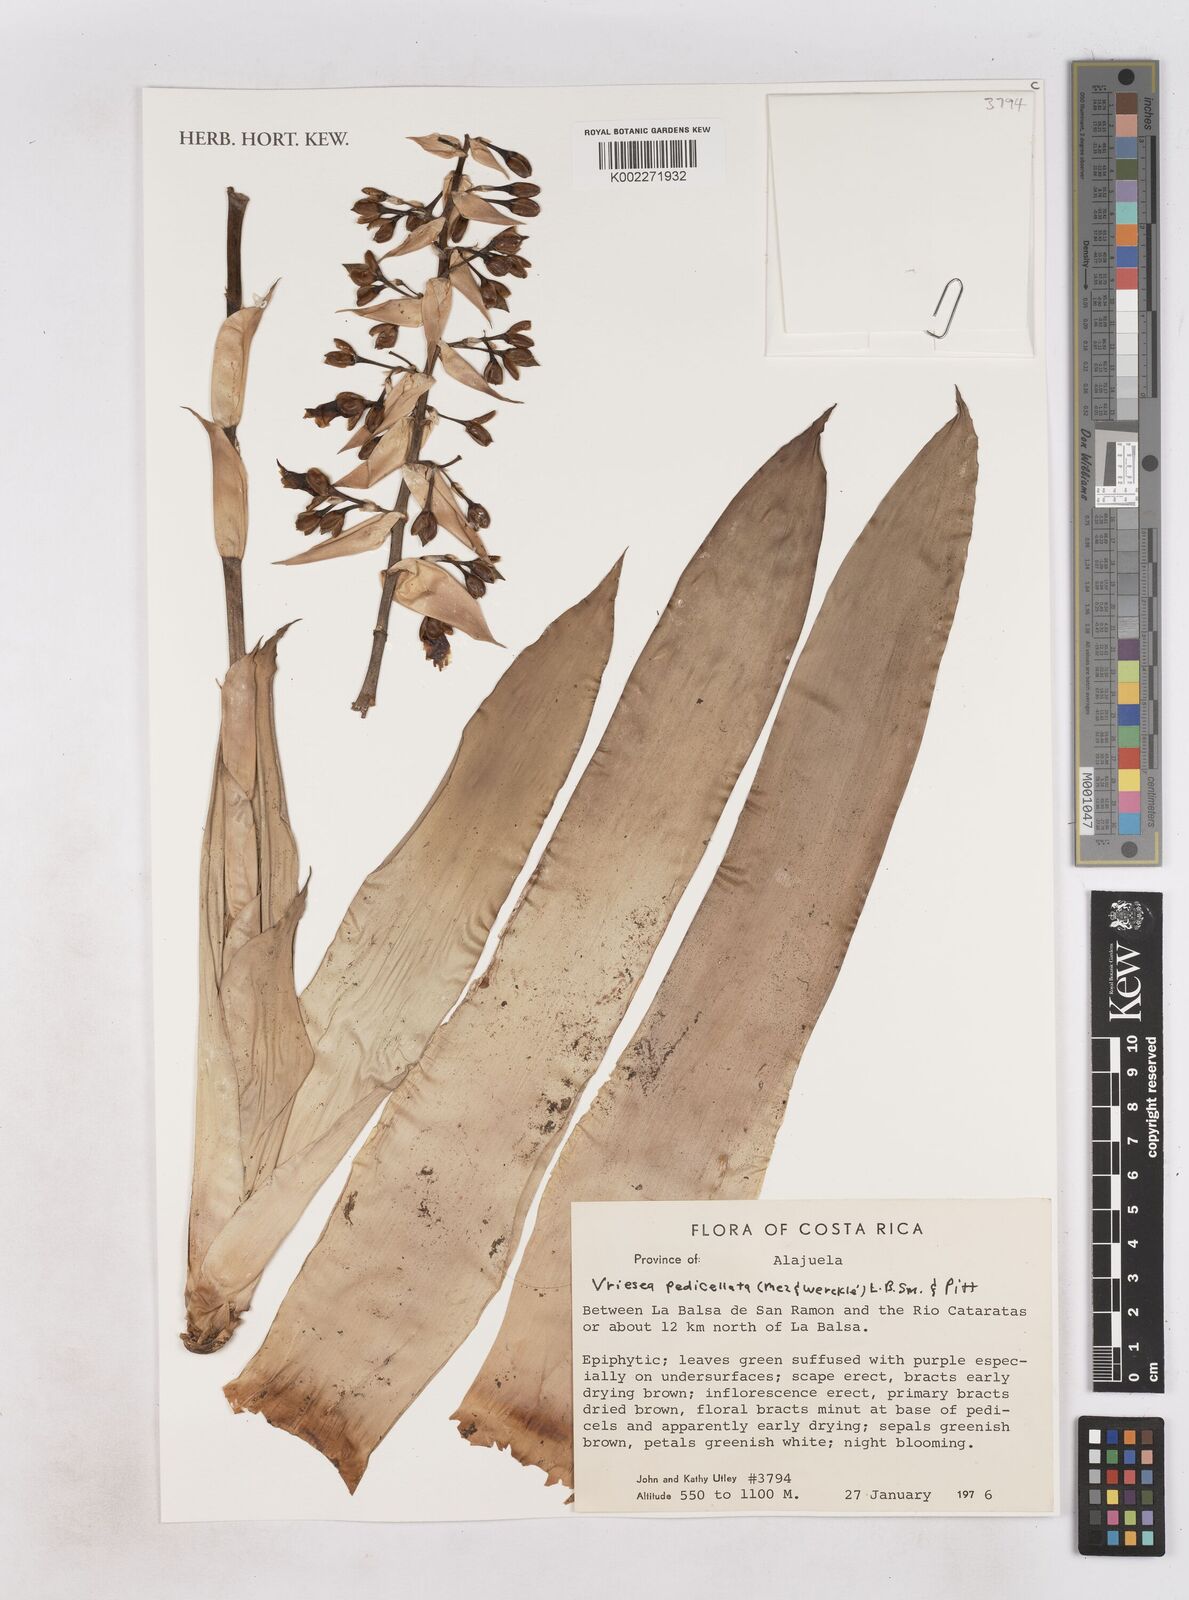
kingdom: Plantae
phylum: Tracheophyta
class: Liliopsida
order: Poales
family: Bromeliaceae
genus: Werauhia
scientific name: Werauhia pedicellata
